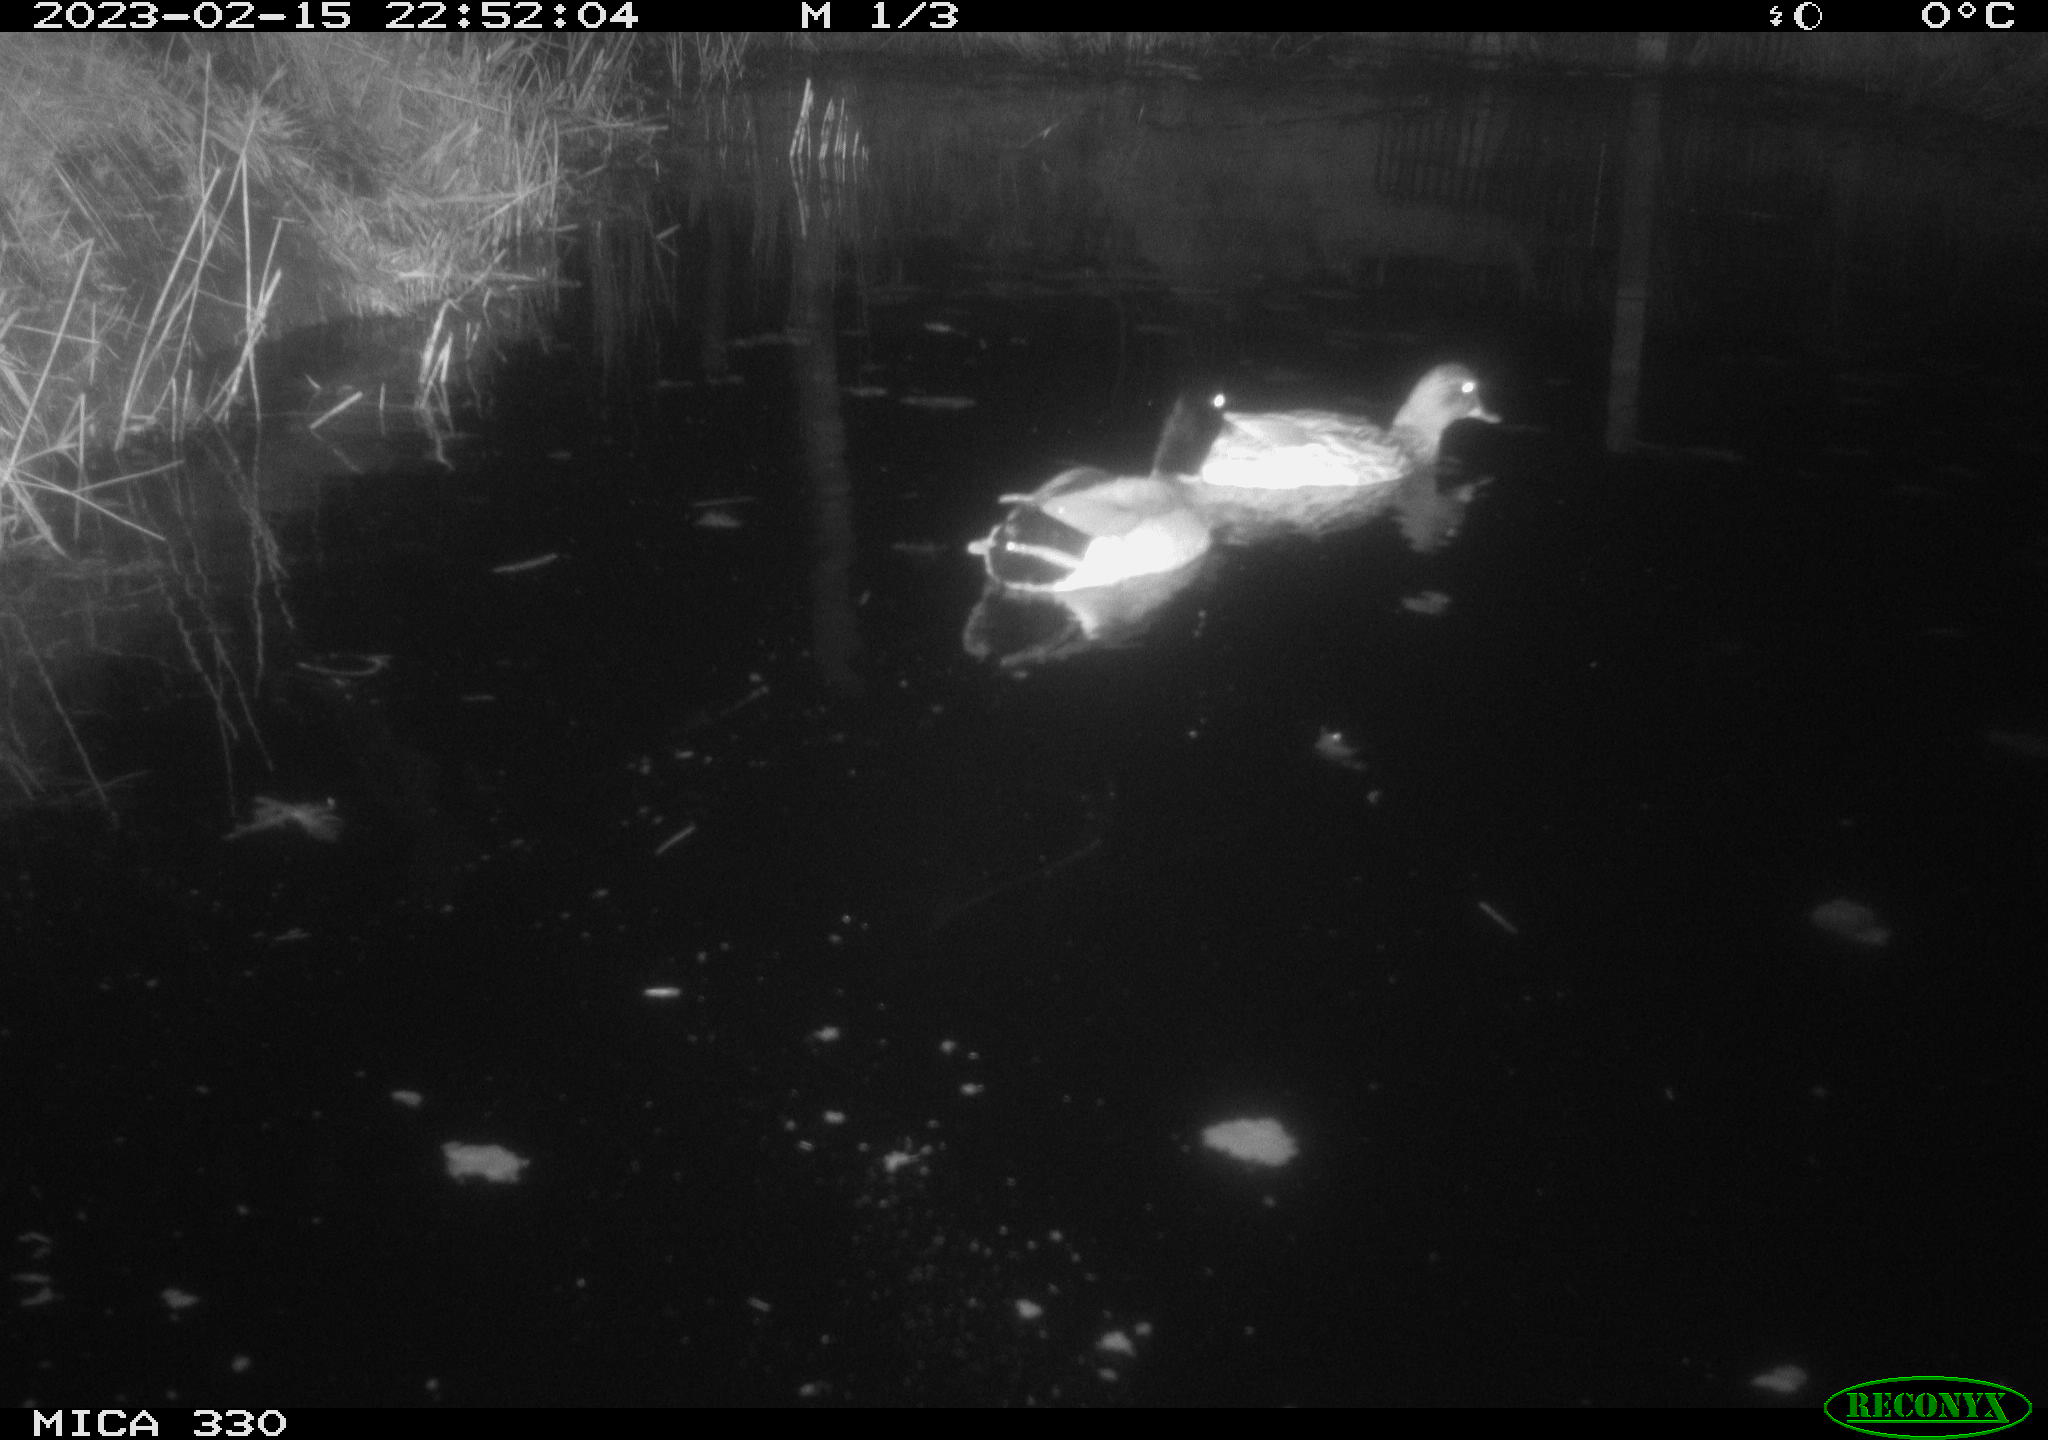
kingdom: Animalia
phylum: Chordata
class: Aves
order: Anseriformes
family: Anatidae
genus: Anas
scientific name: Anas
